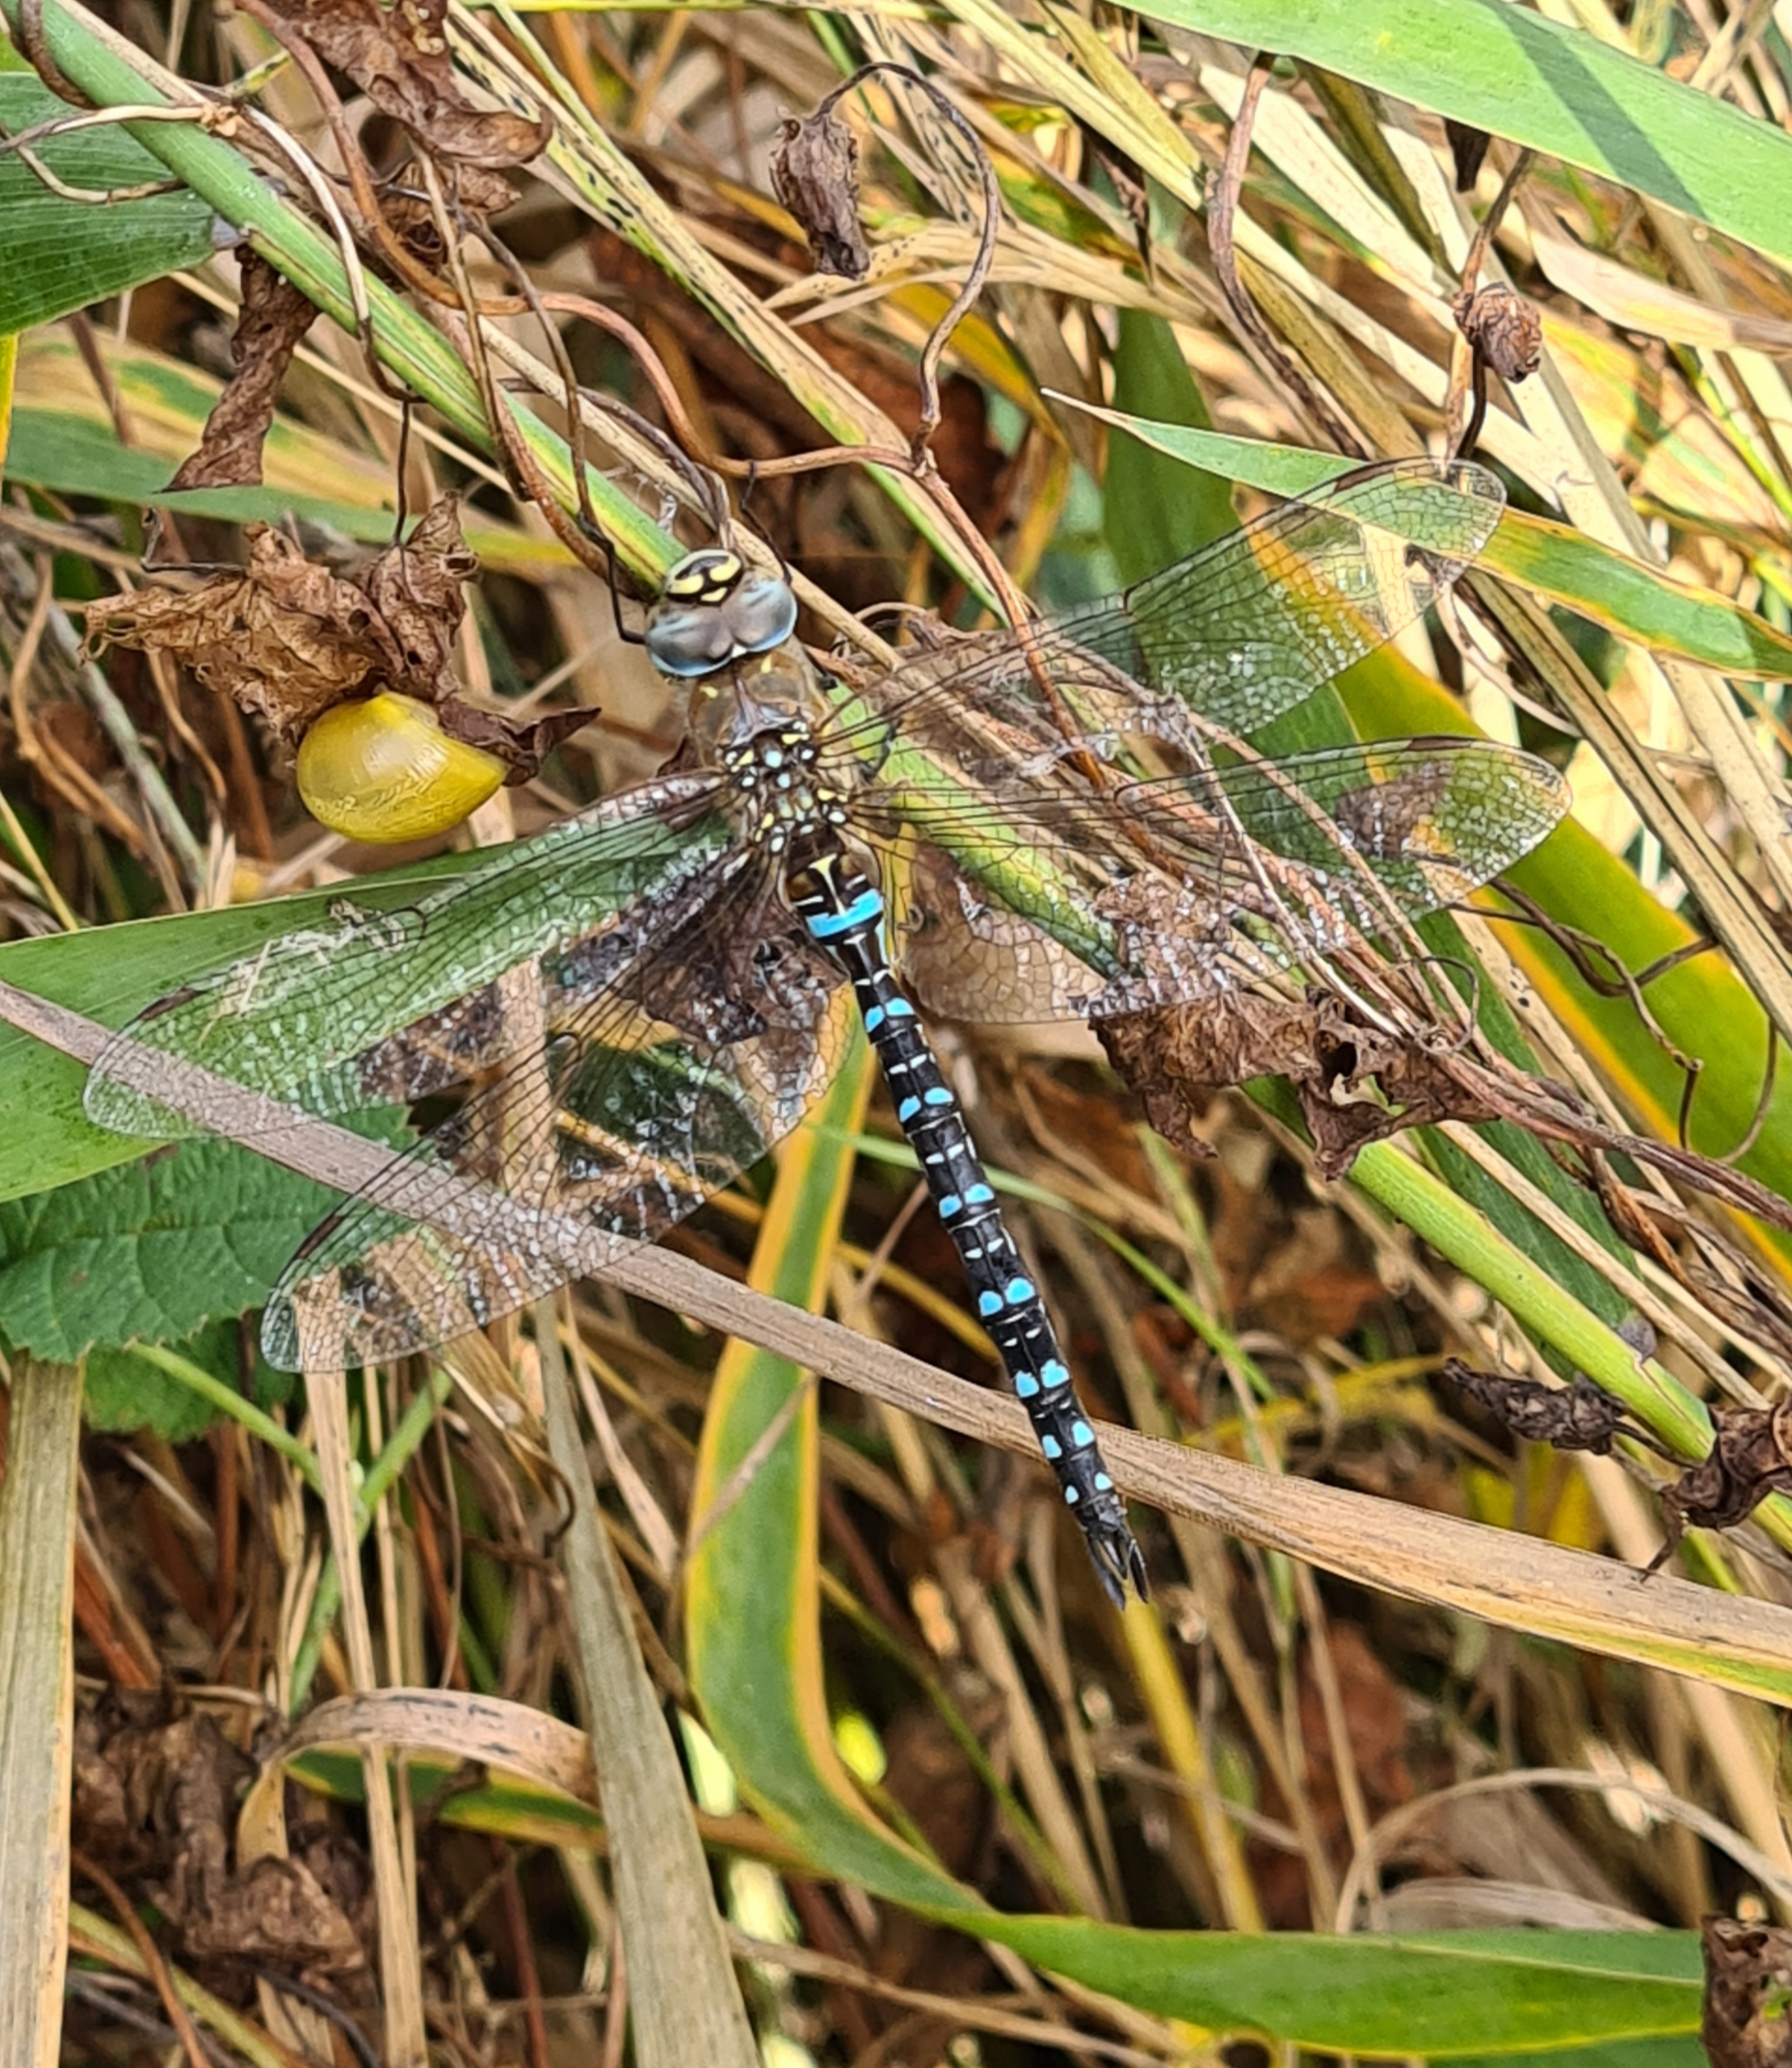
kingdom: Animalia
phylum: Arthropoda
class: Insecta
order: Odonata
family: Aeshnidae
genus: Aeshna
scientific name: Aeshna mixta
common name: Efterårs-mosaikguldsmed
